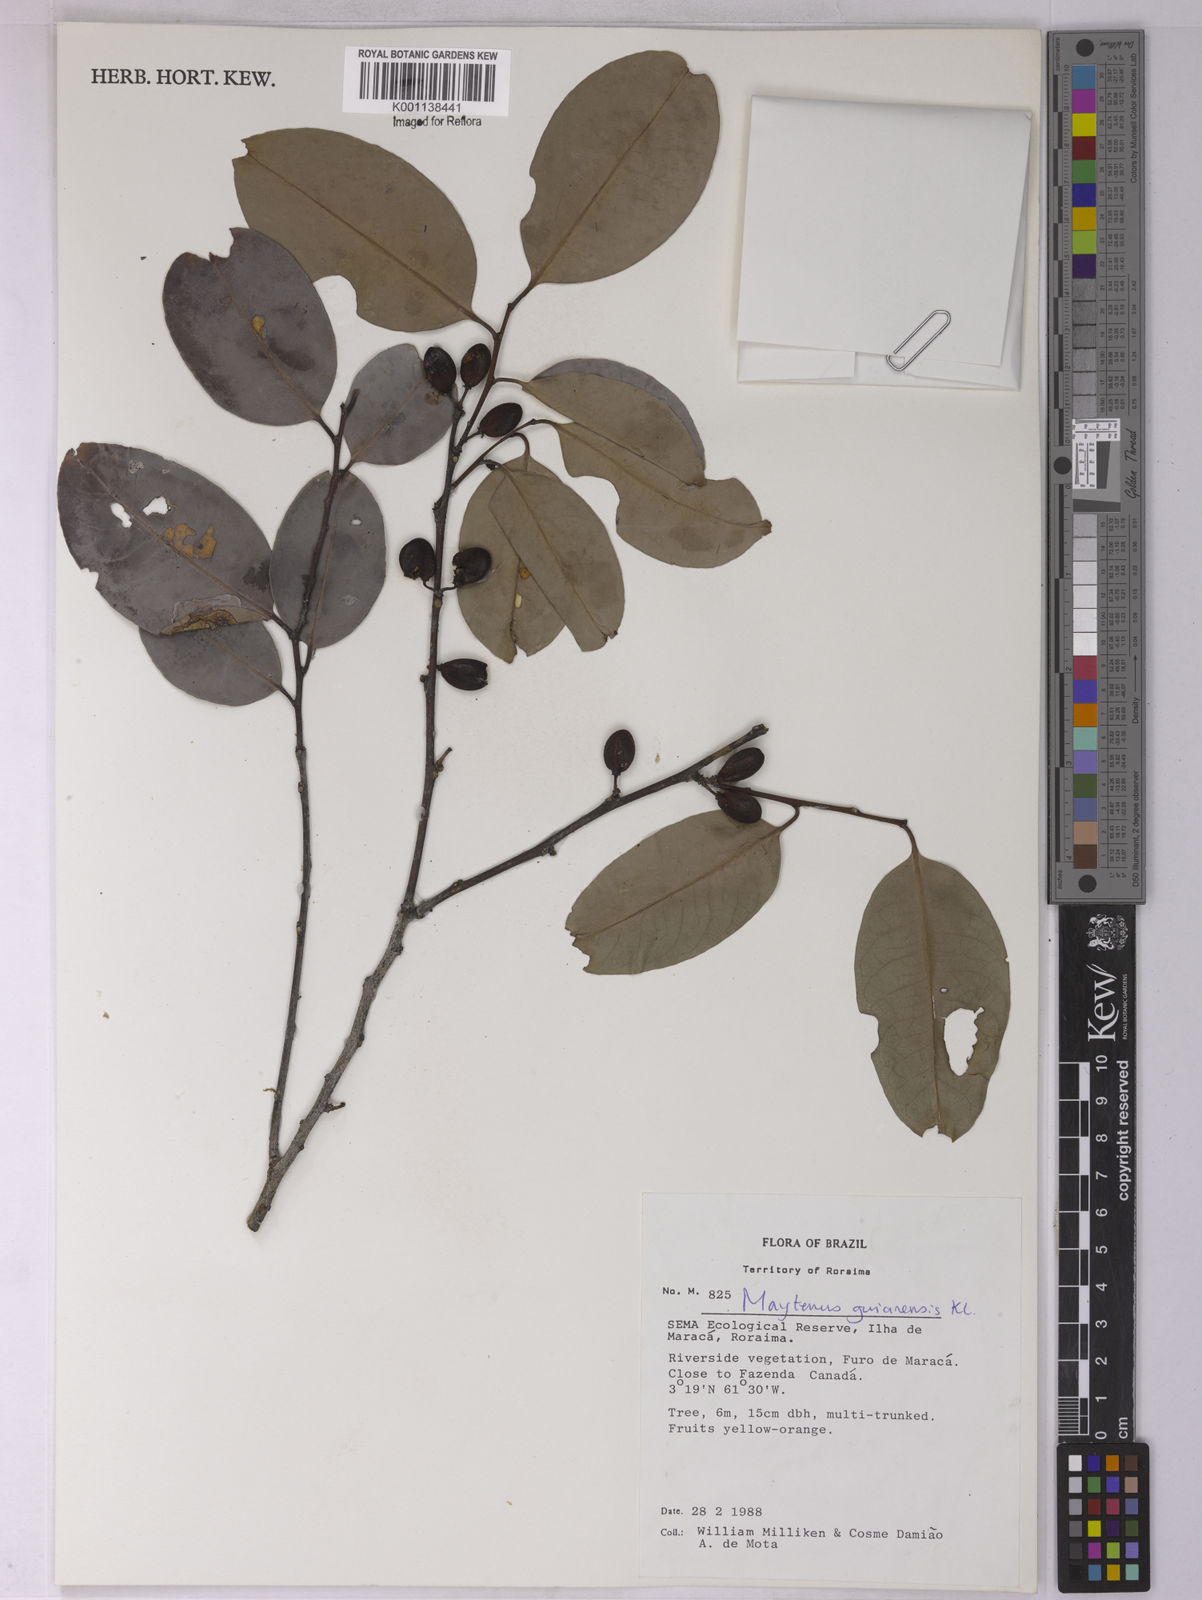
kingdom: Plantae
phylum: Tracheophyta
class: Magnoliopsida
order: Celastrales
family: Celastraceae
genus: Monteverdia
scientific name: Monteverdia guyanensis
